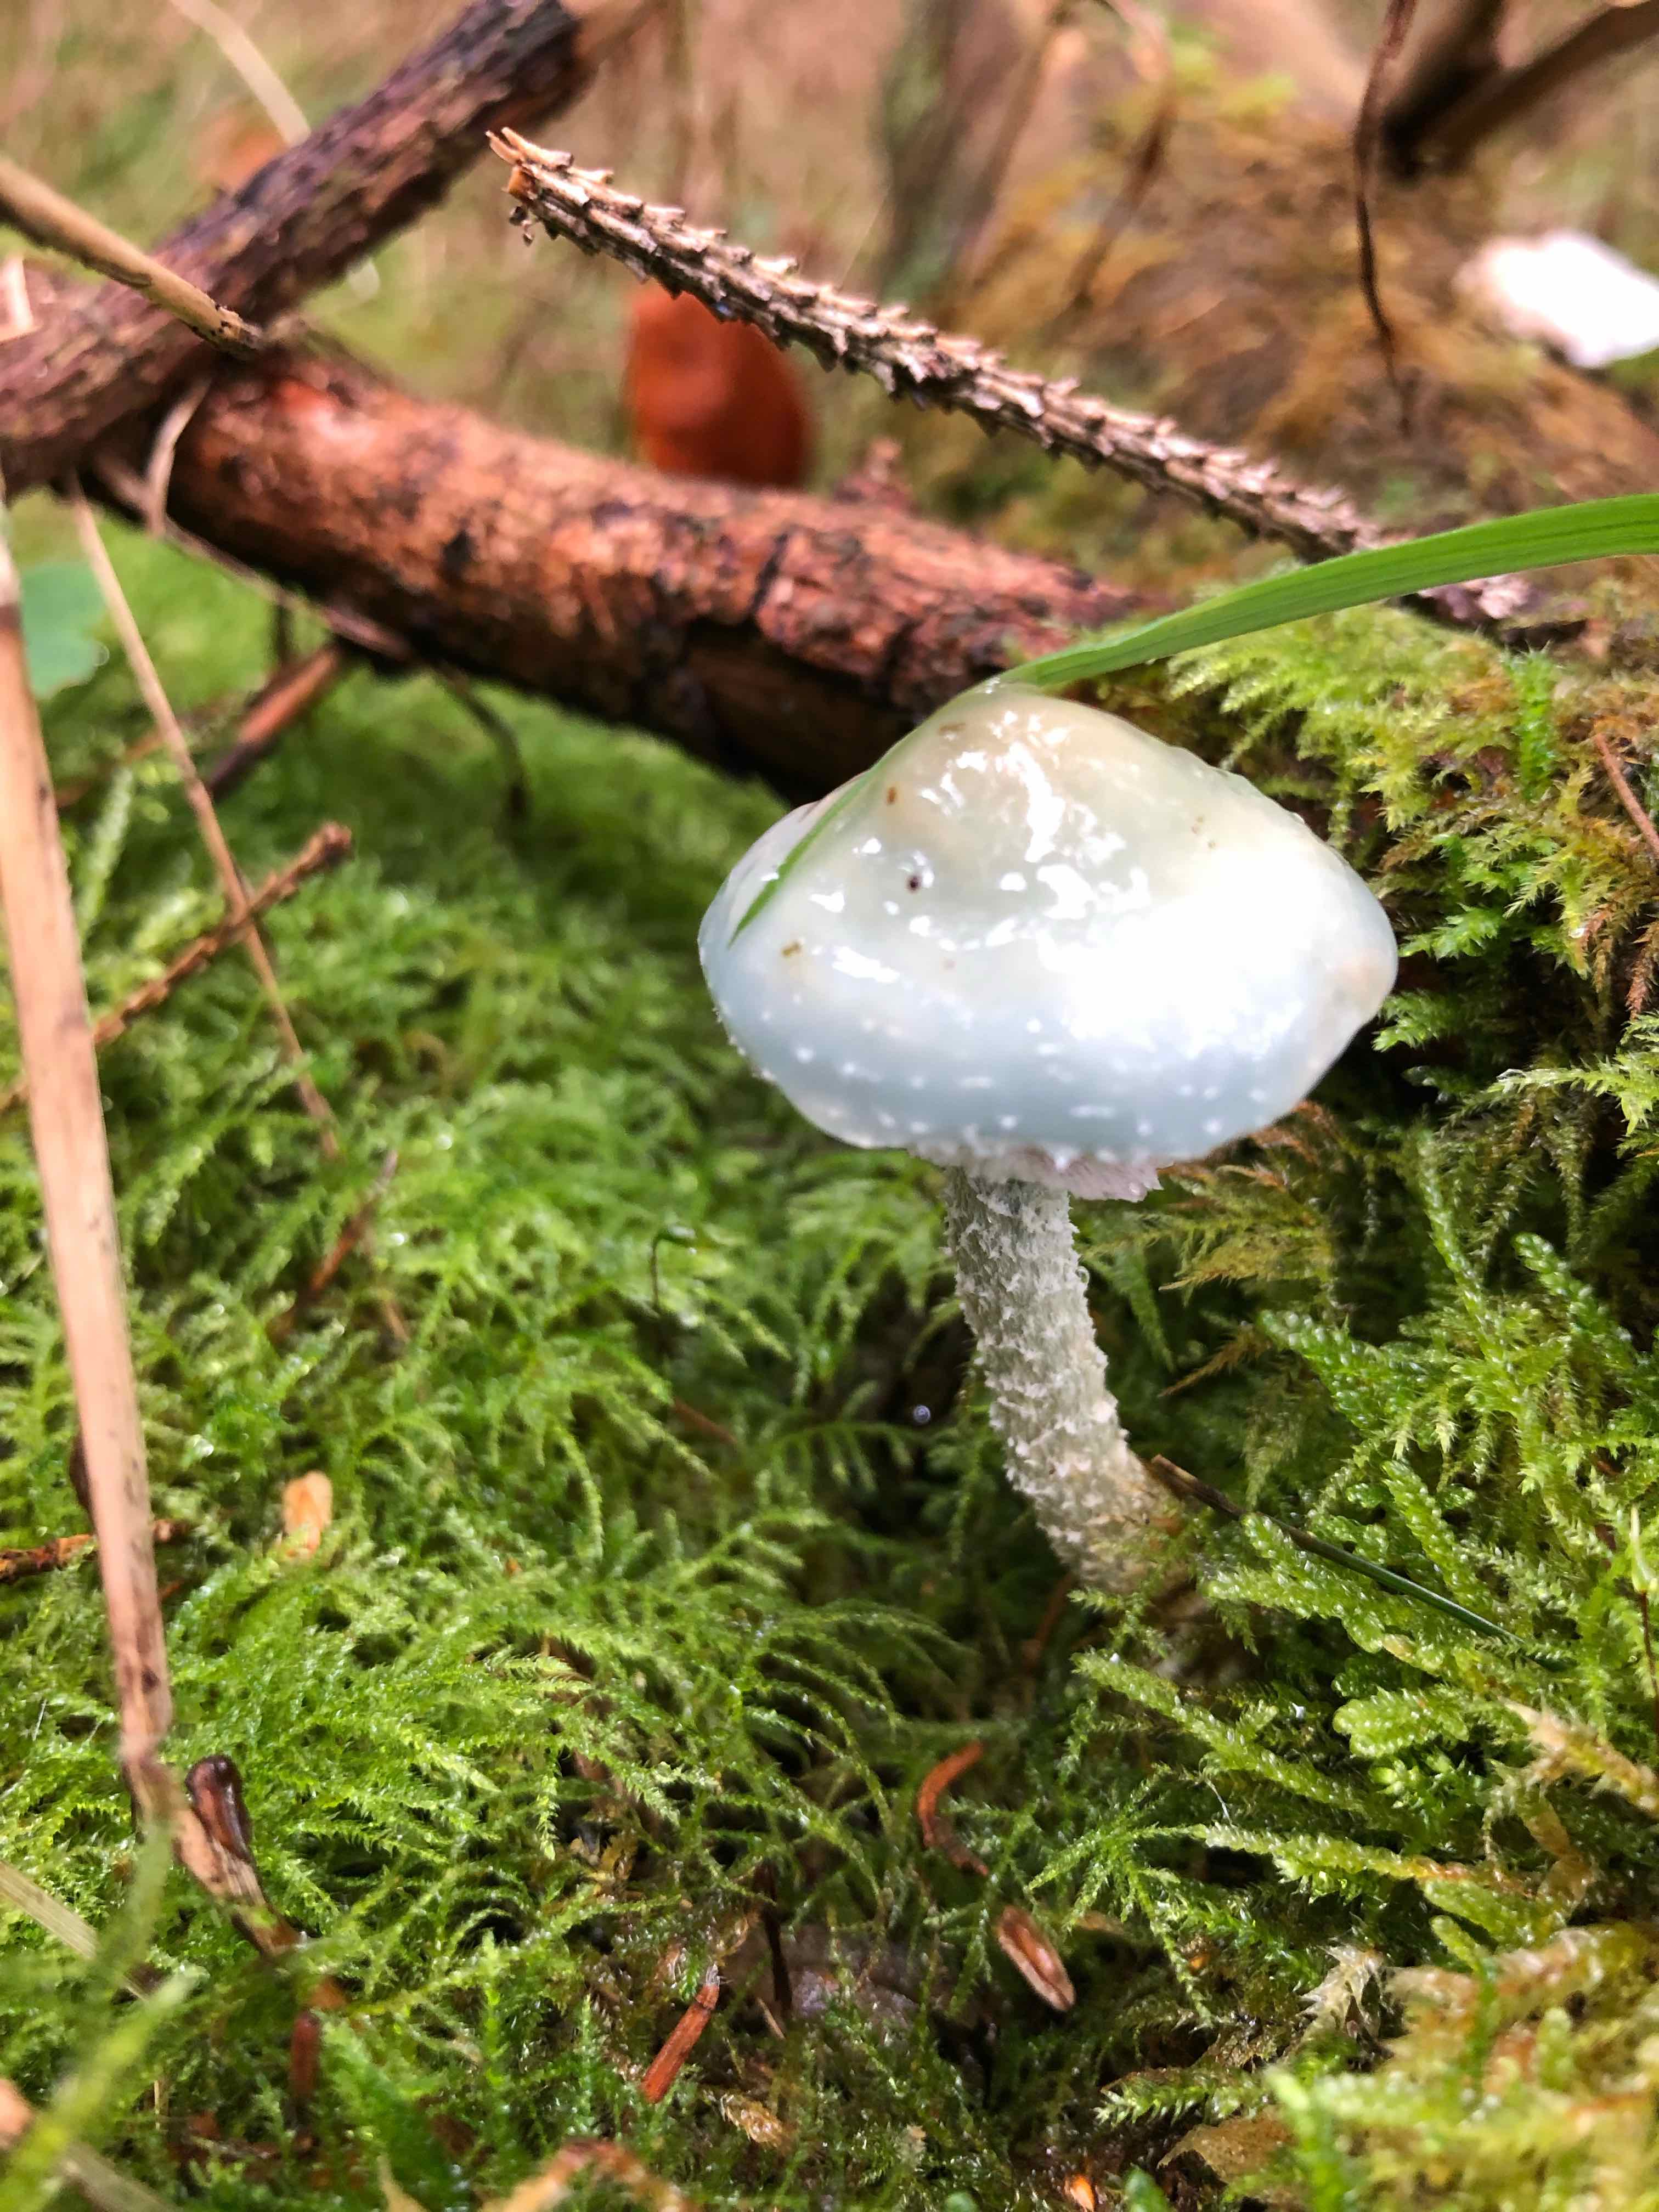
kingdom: Fungi
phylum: Basidiomycota
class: Agaricomycetes
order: Agaricales
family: Strophariaceae
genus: Stropharia
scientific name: Stropharia aeruginosa
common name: spanskgrøn bredblad
